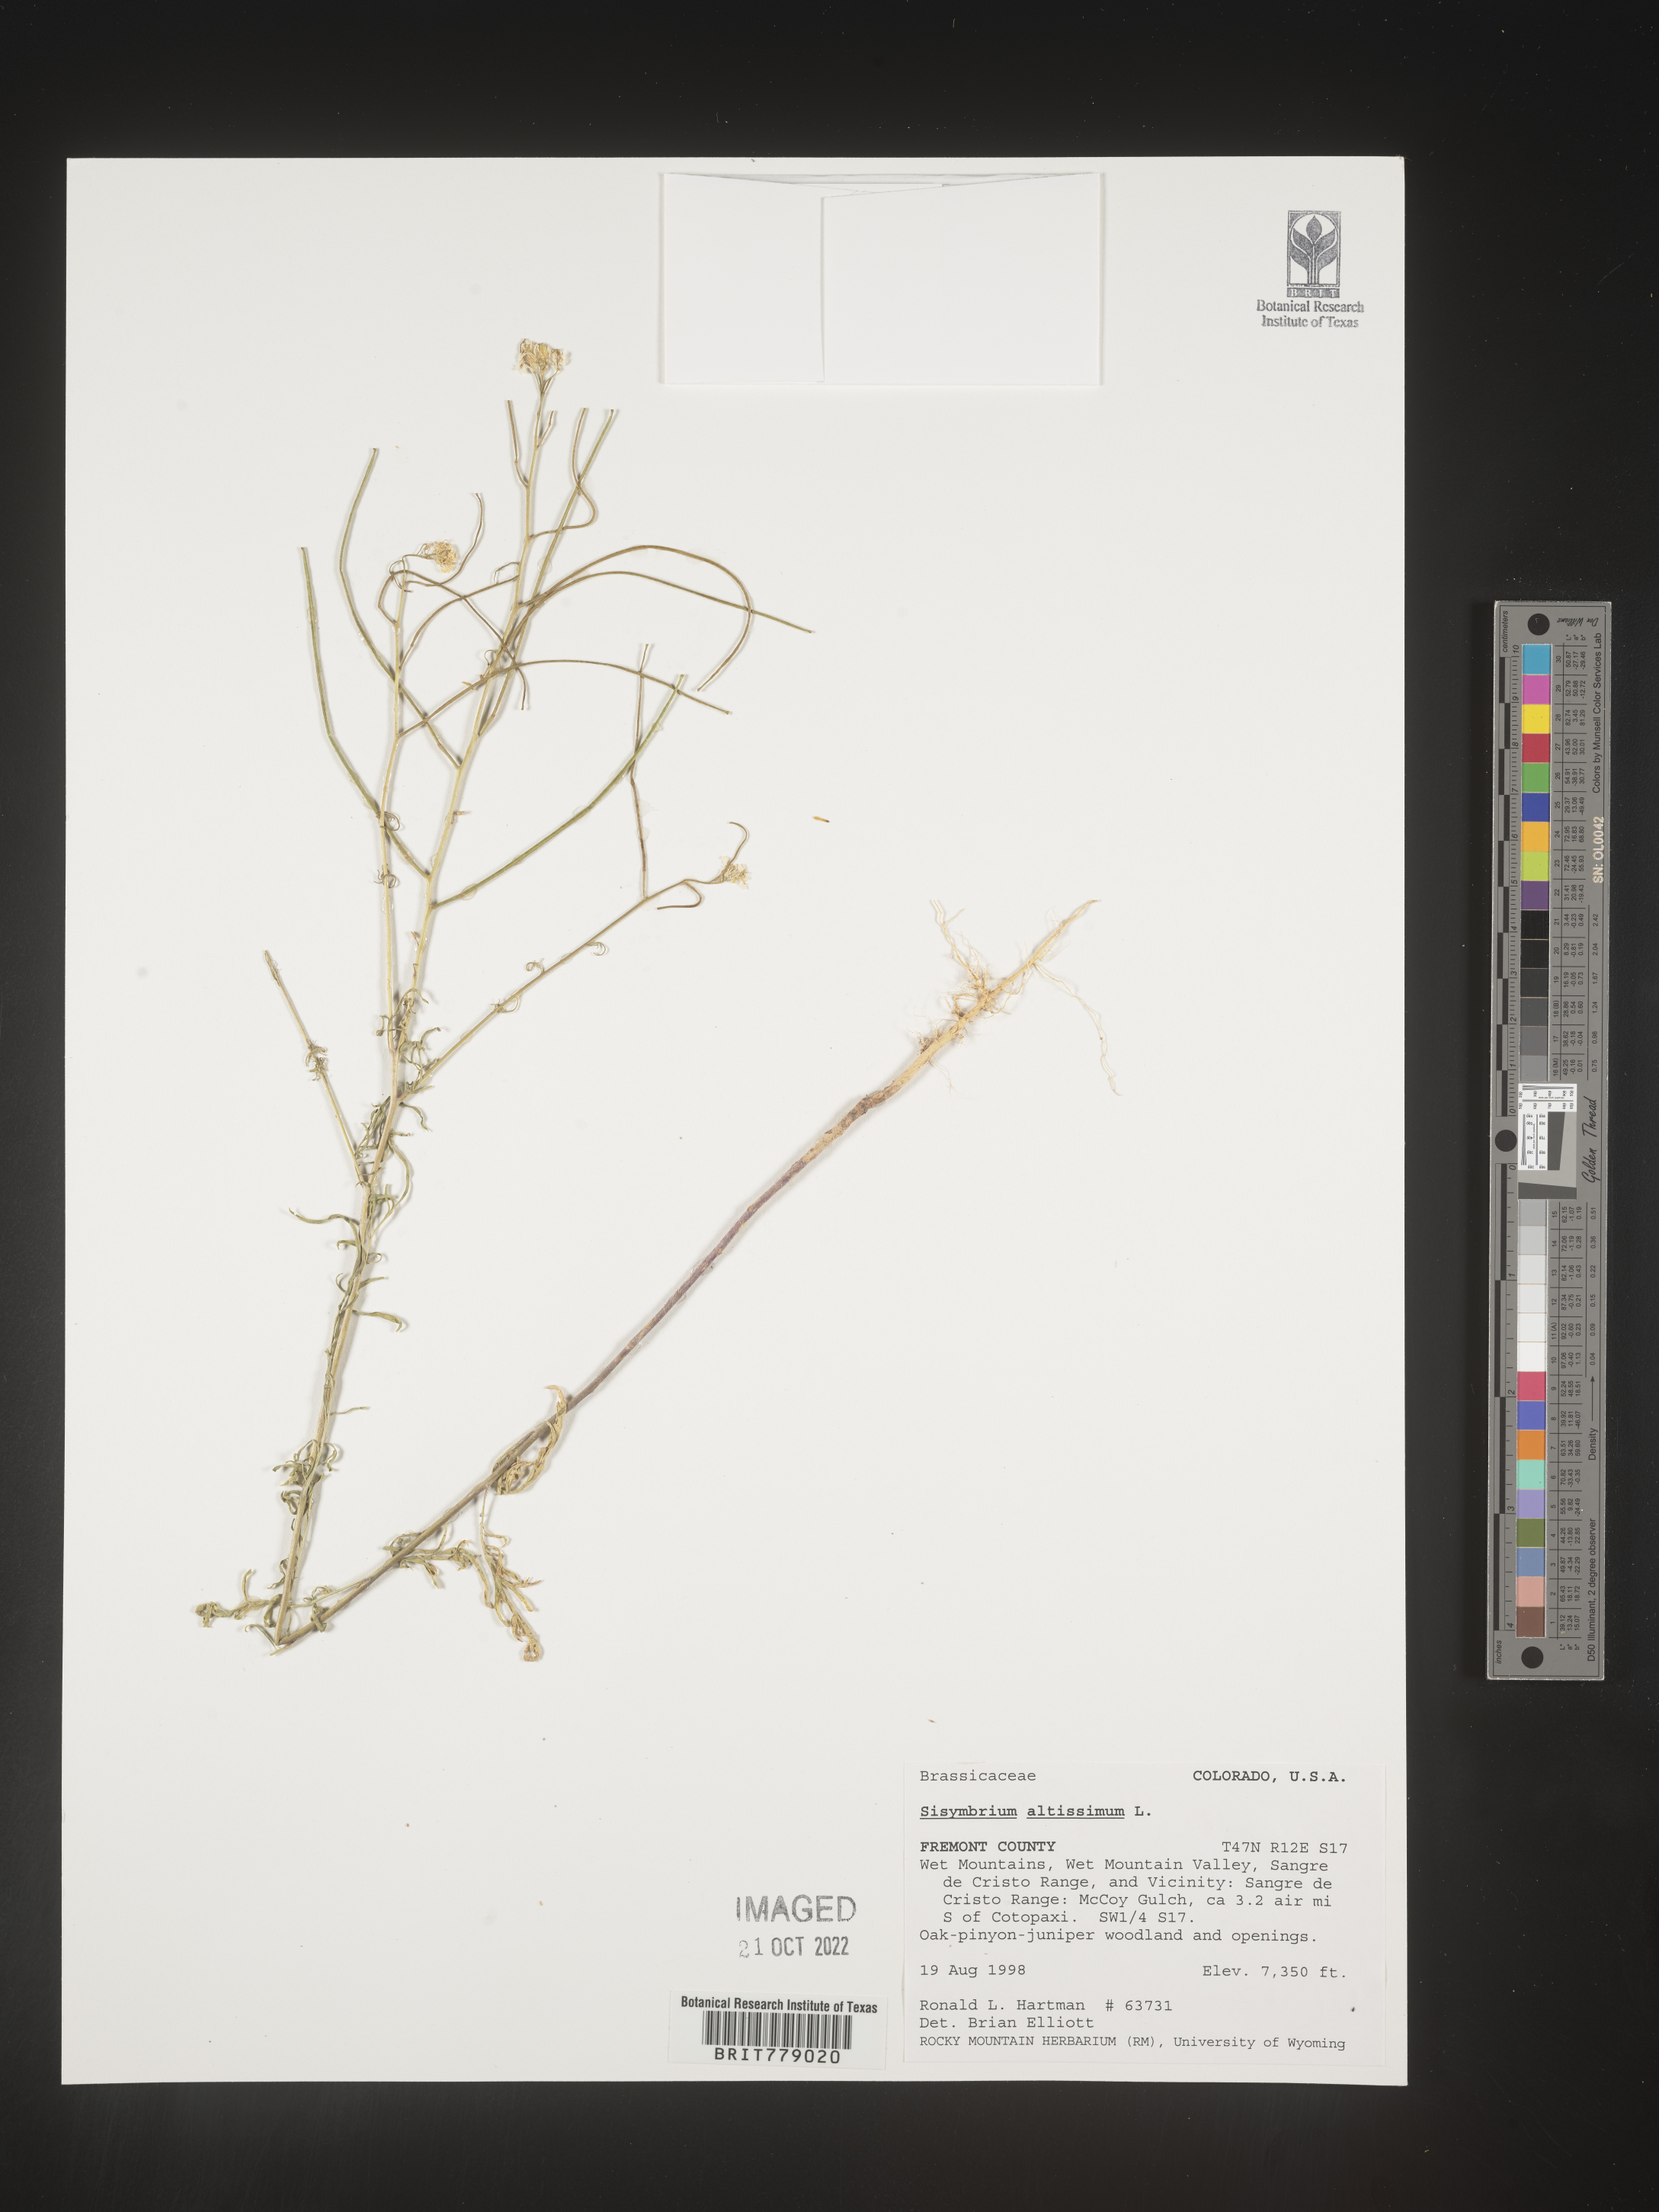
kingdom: Plantae
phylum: Tracheophyta
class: Magnoliopsida
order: Brassicales
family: Brassicaceae
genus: Sisymbrium
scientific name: Sisymbrium altissimum
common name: Tall rocket
